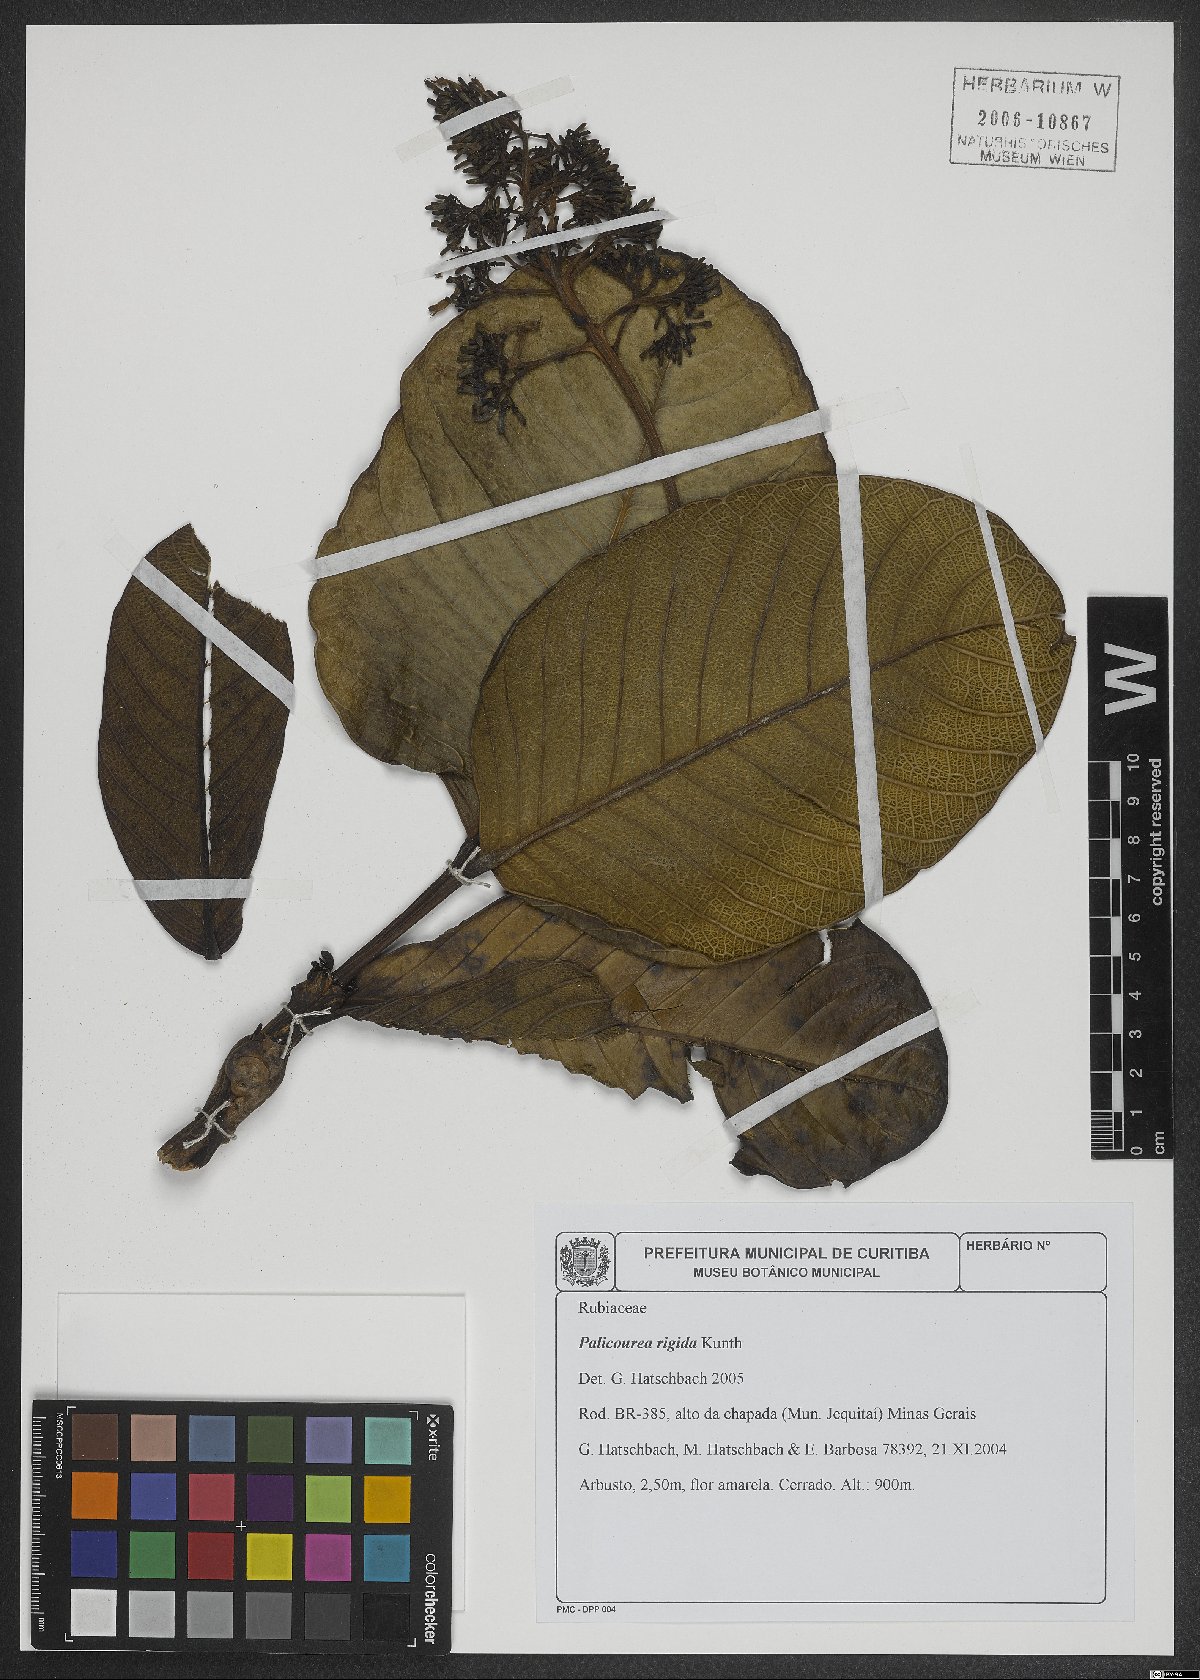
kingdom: Plantae
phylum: Tracheophyta
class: Magnoliopsida
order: Gentianales
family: Rubiaceae
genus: Palicourea
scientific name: Palicourea rigida
